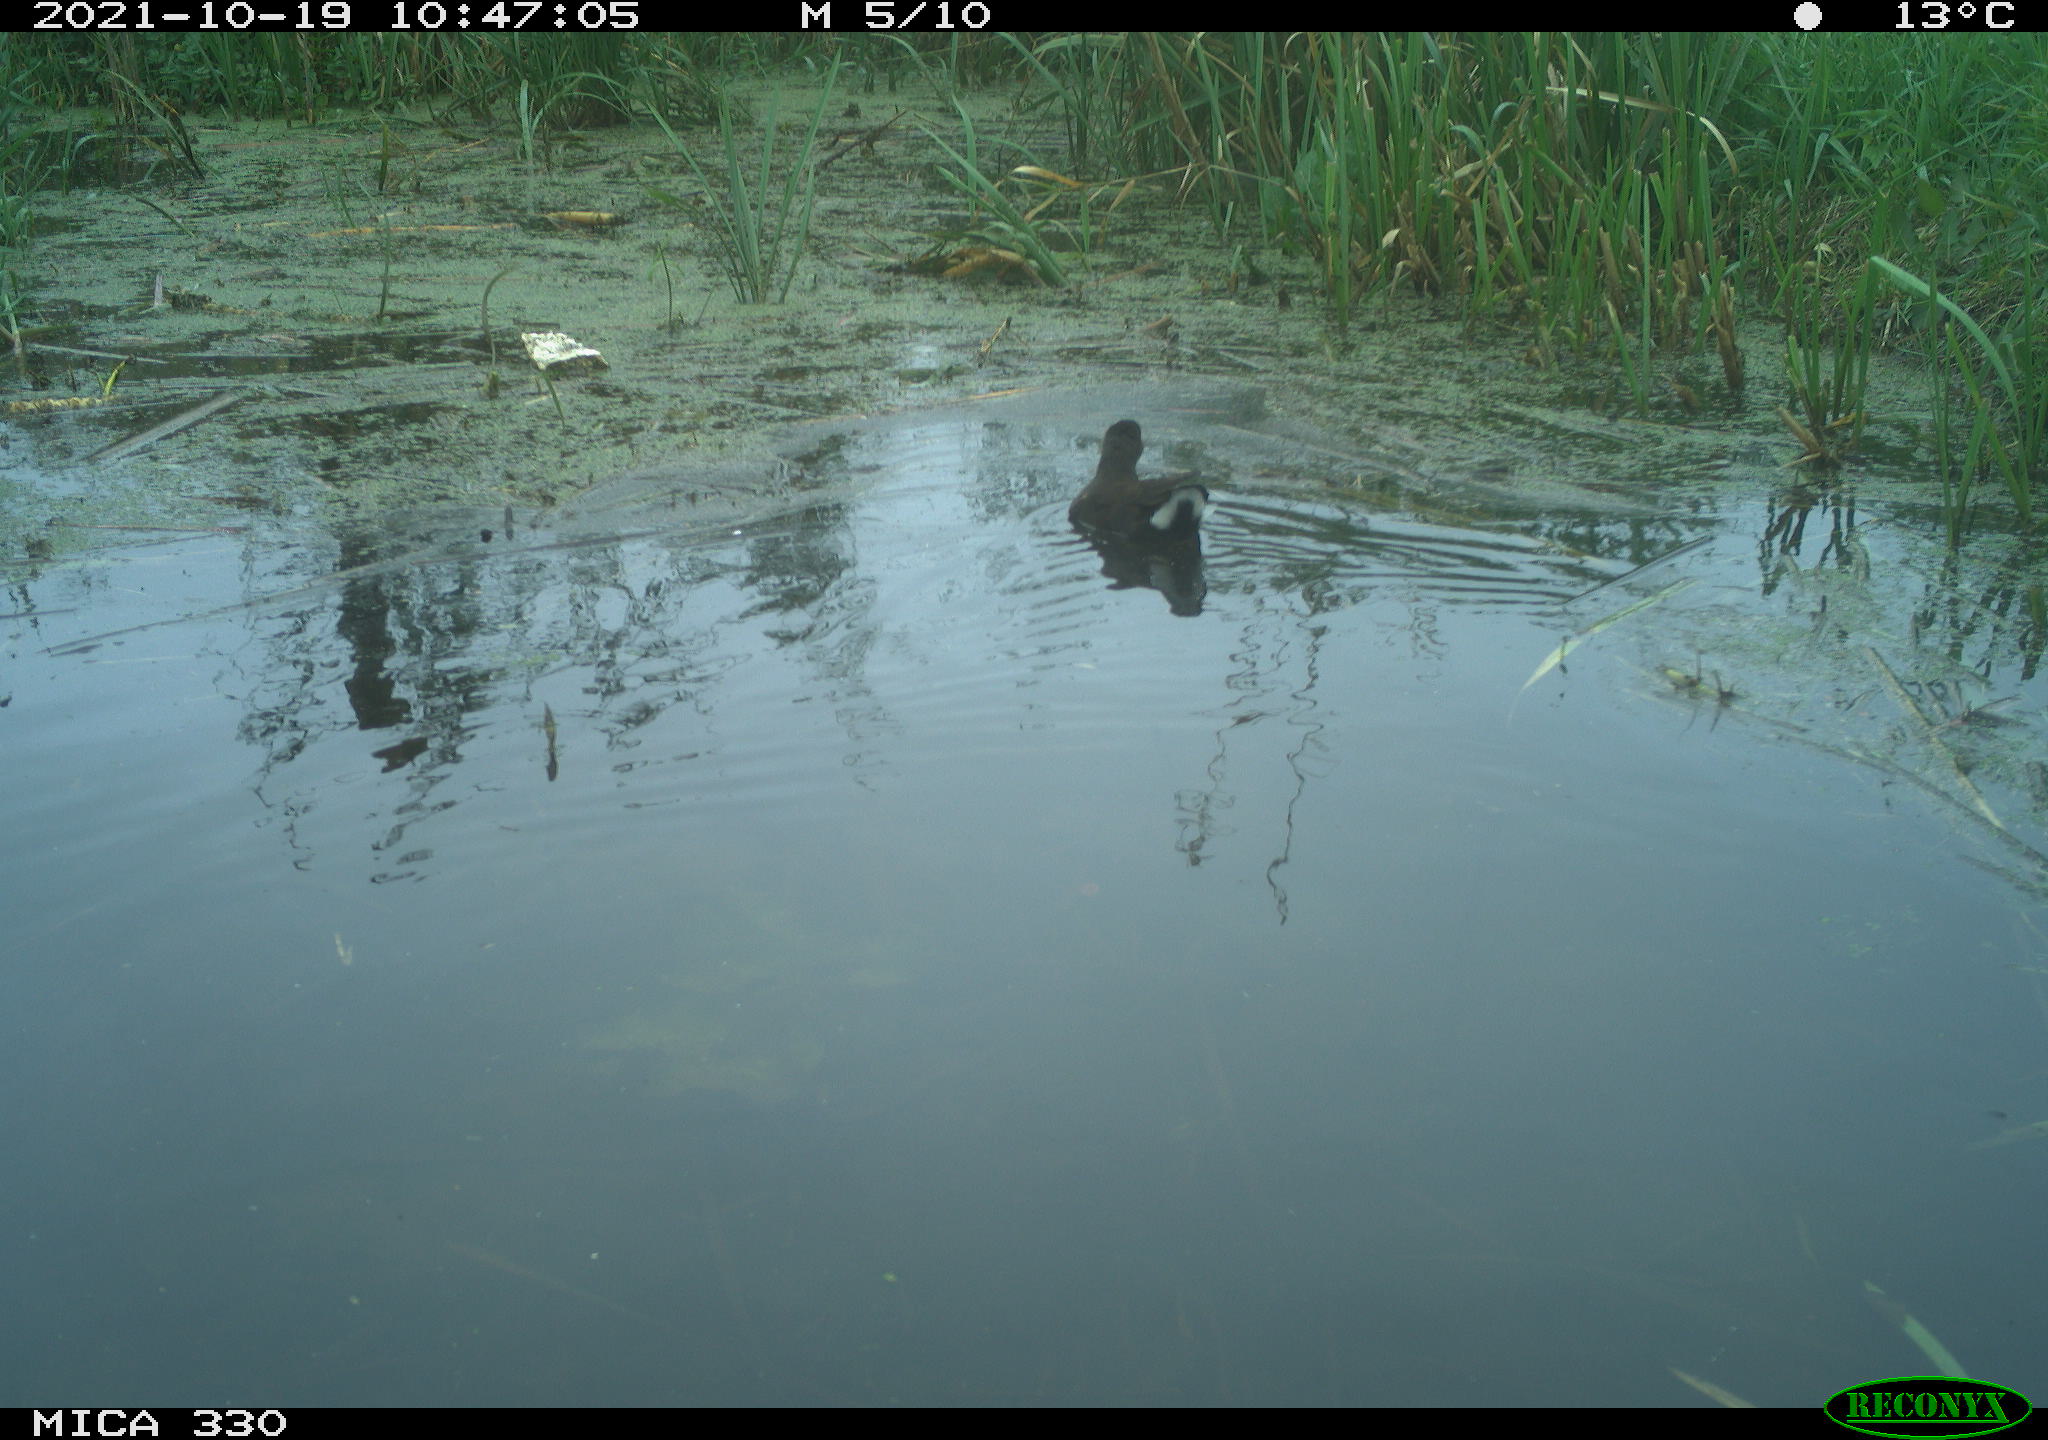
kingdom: Animalia
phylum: Chordata
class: Aves
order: Gruiformes
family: Rallidae
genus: Gallinula
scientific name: Gallinula chloropus
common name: Common moorhen
